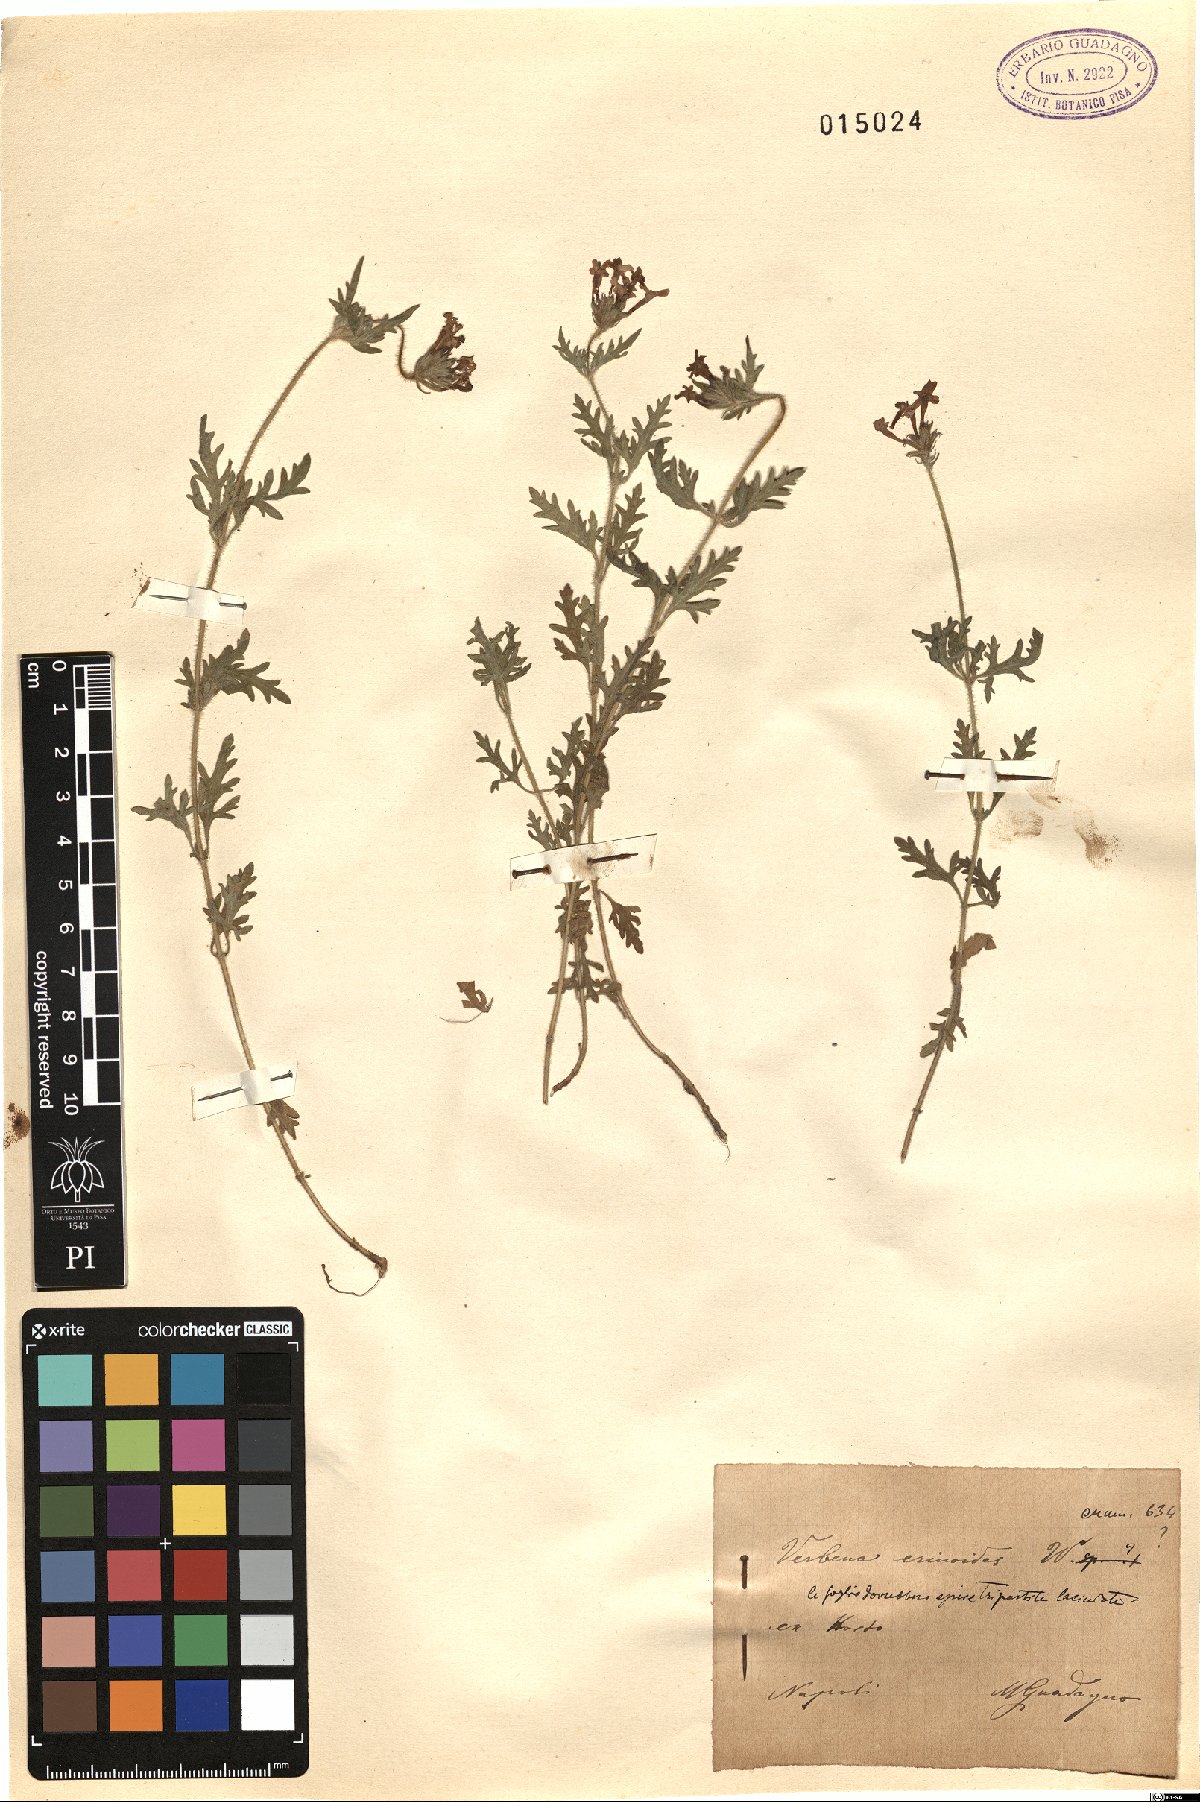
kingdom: Plantae
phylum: Tracheophyta
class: Magnoliopsida
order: Lamiales
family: Verbenaceae
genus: Verbena
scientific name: Verbena laciniata
